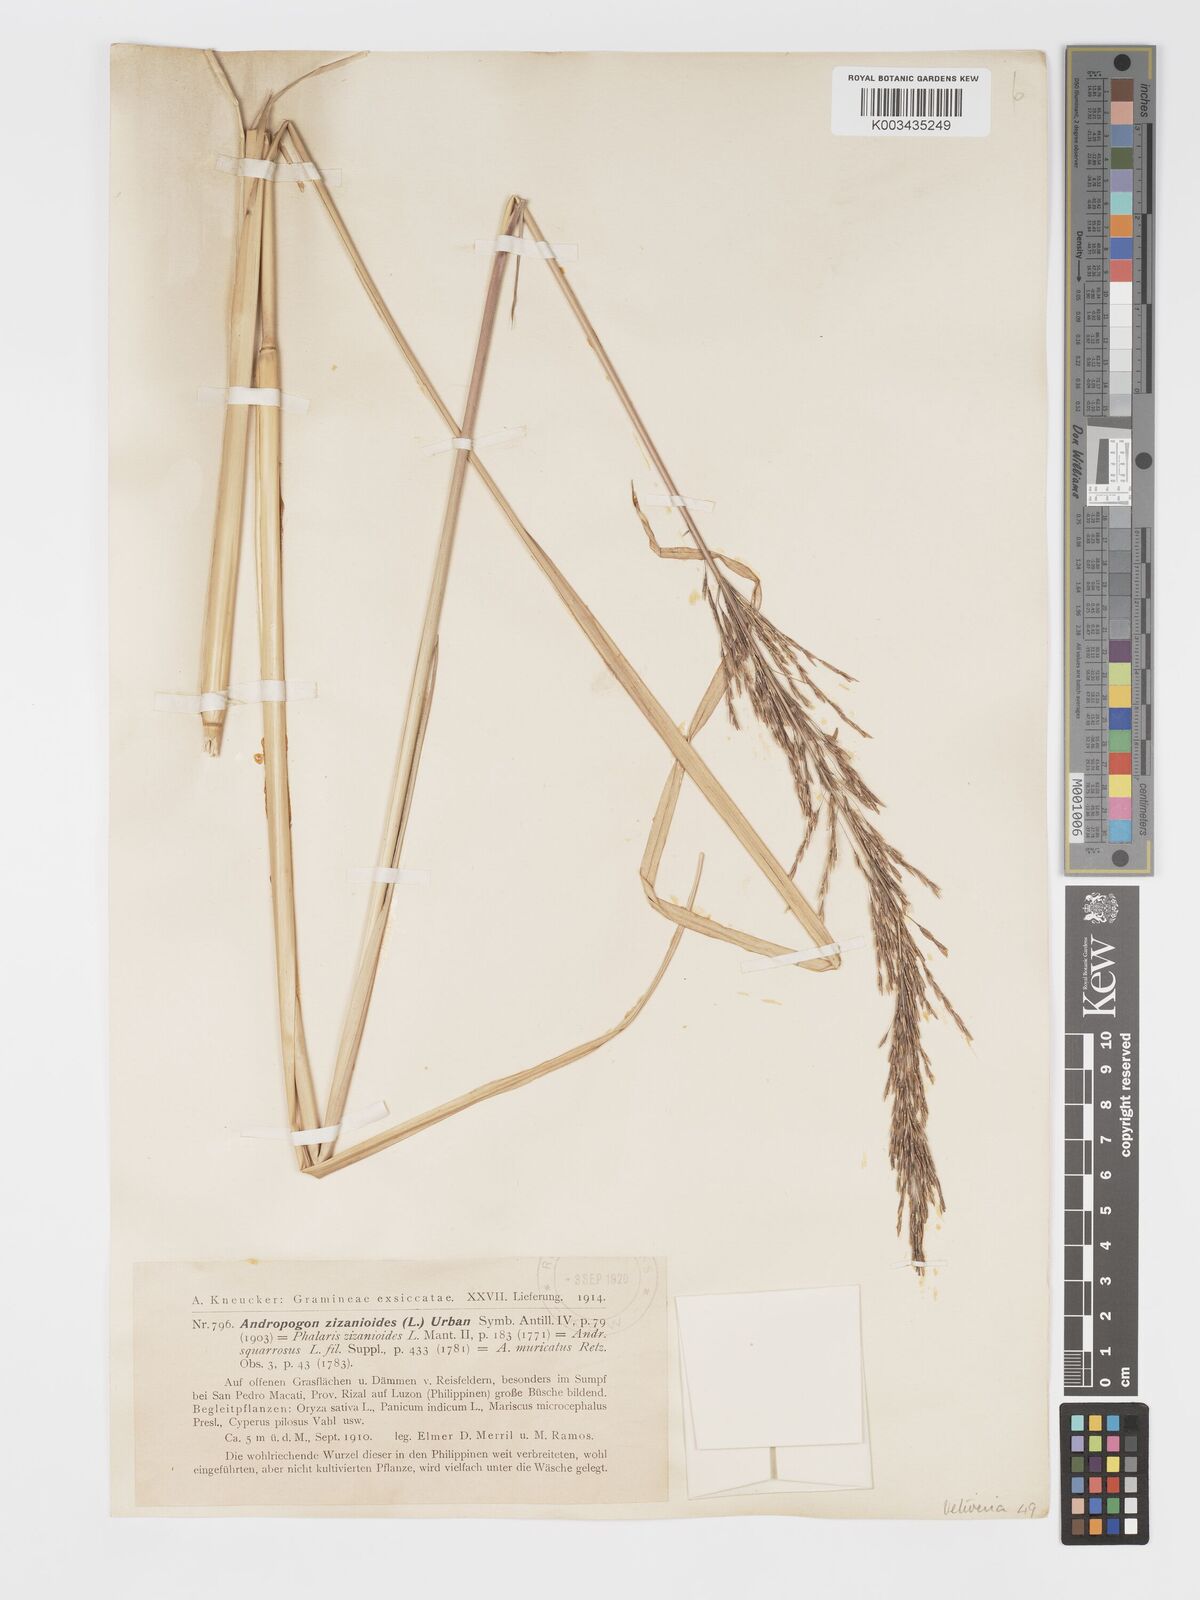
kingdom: Plantae
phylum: Tracheophyta
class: Liliopsida
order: Poales
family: Poaceae
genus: Chrysopogon
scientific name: Chrysopogon zizanioides
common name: False beardgrass
